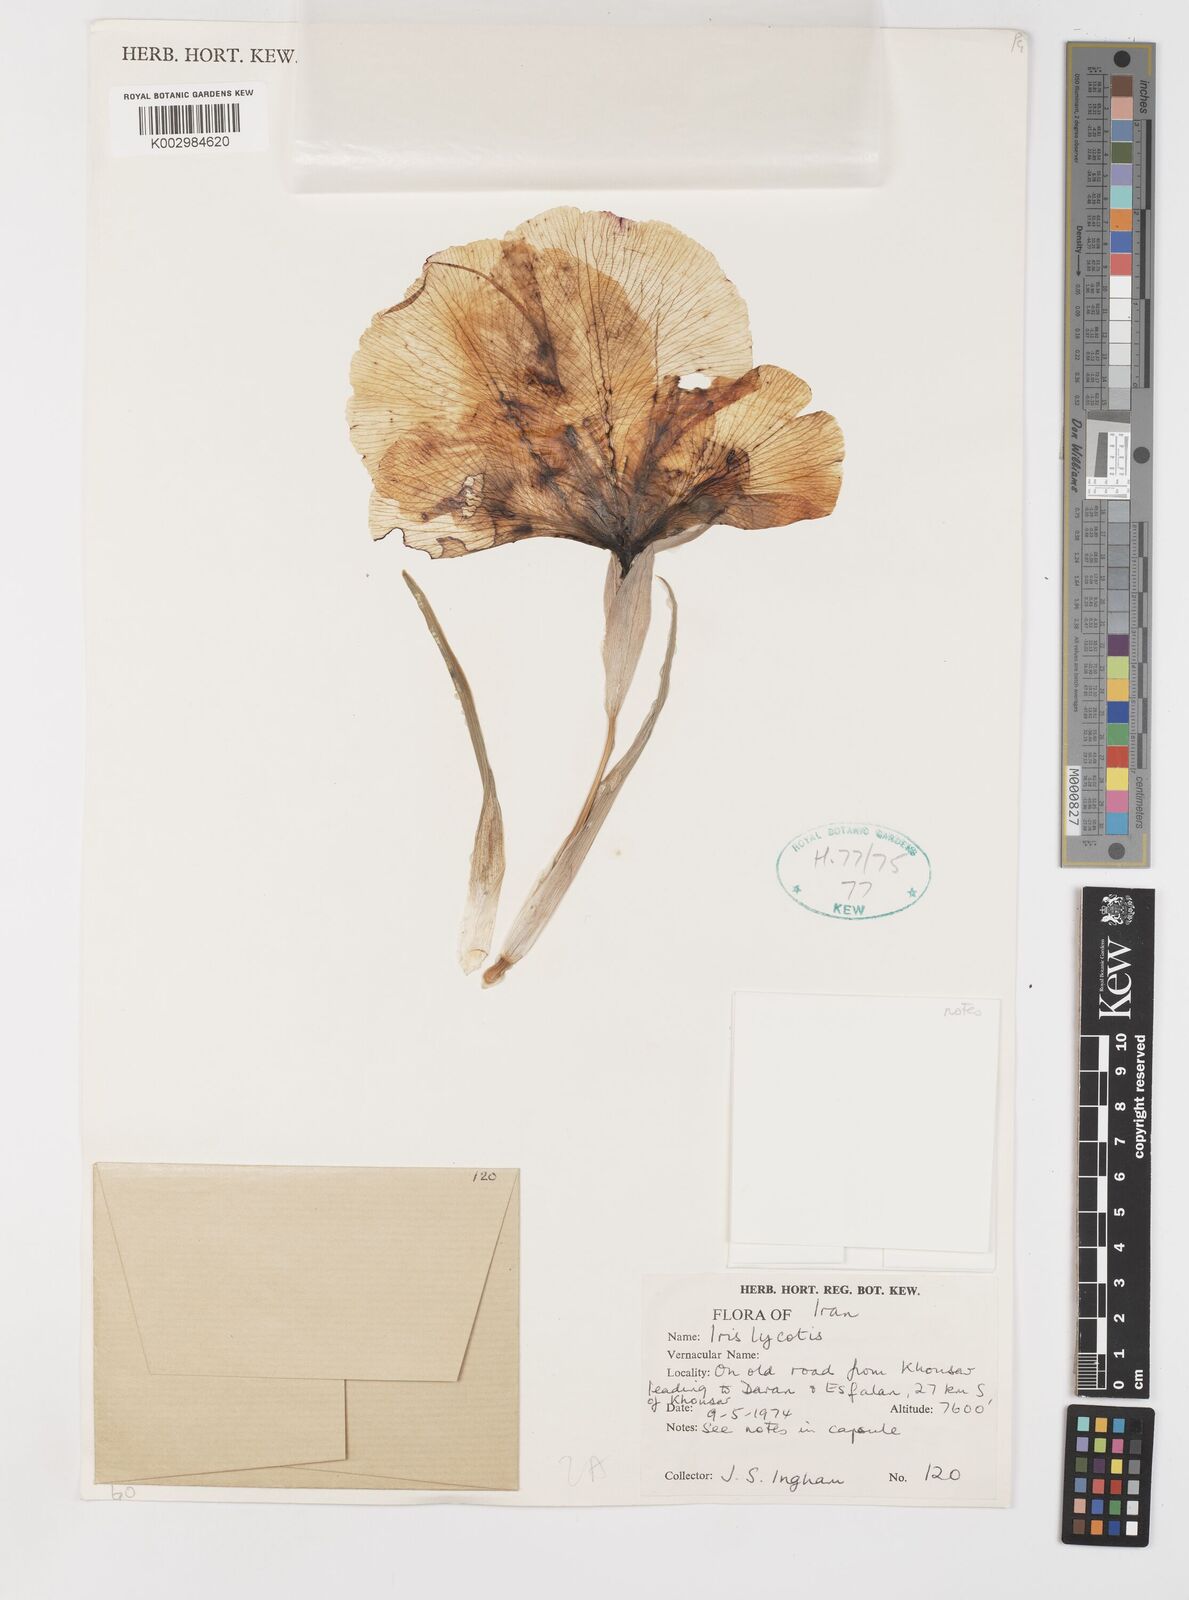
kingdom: Plantae
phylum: Tracheophyta
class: Liliopsida
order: Asparagales
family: Iridaceae
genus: Iris
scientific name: Iris lycotis
